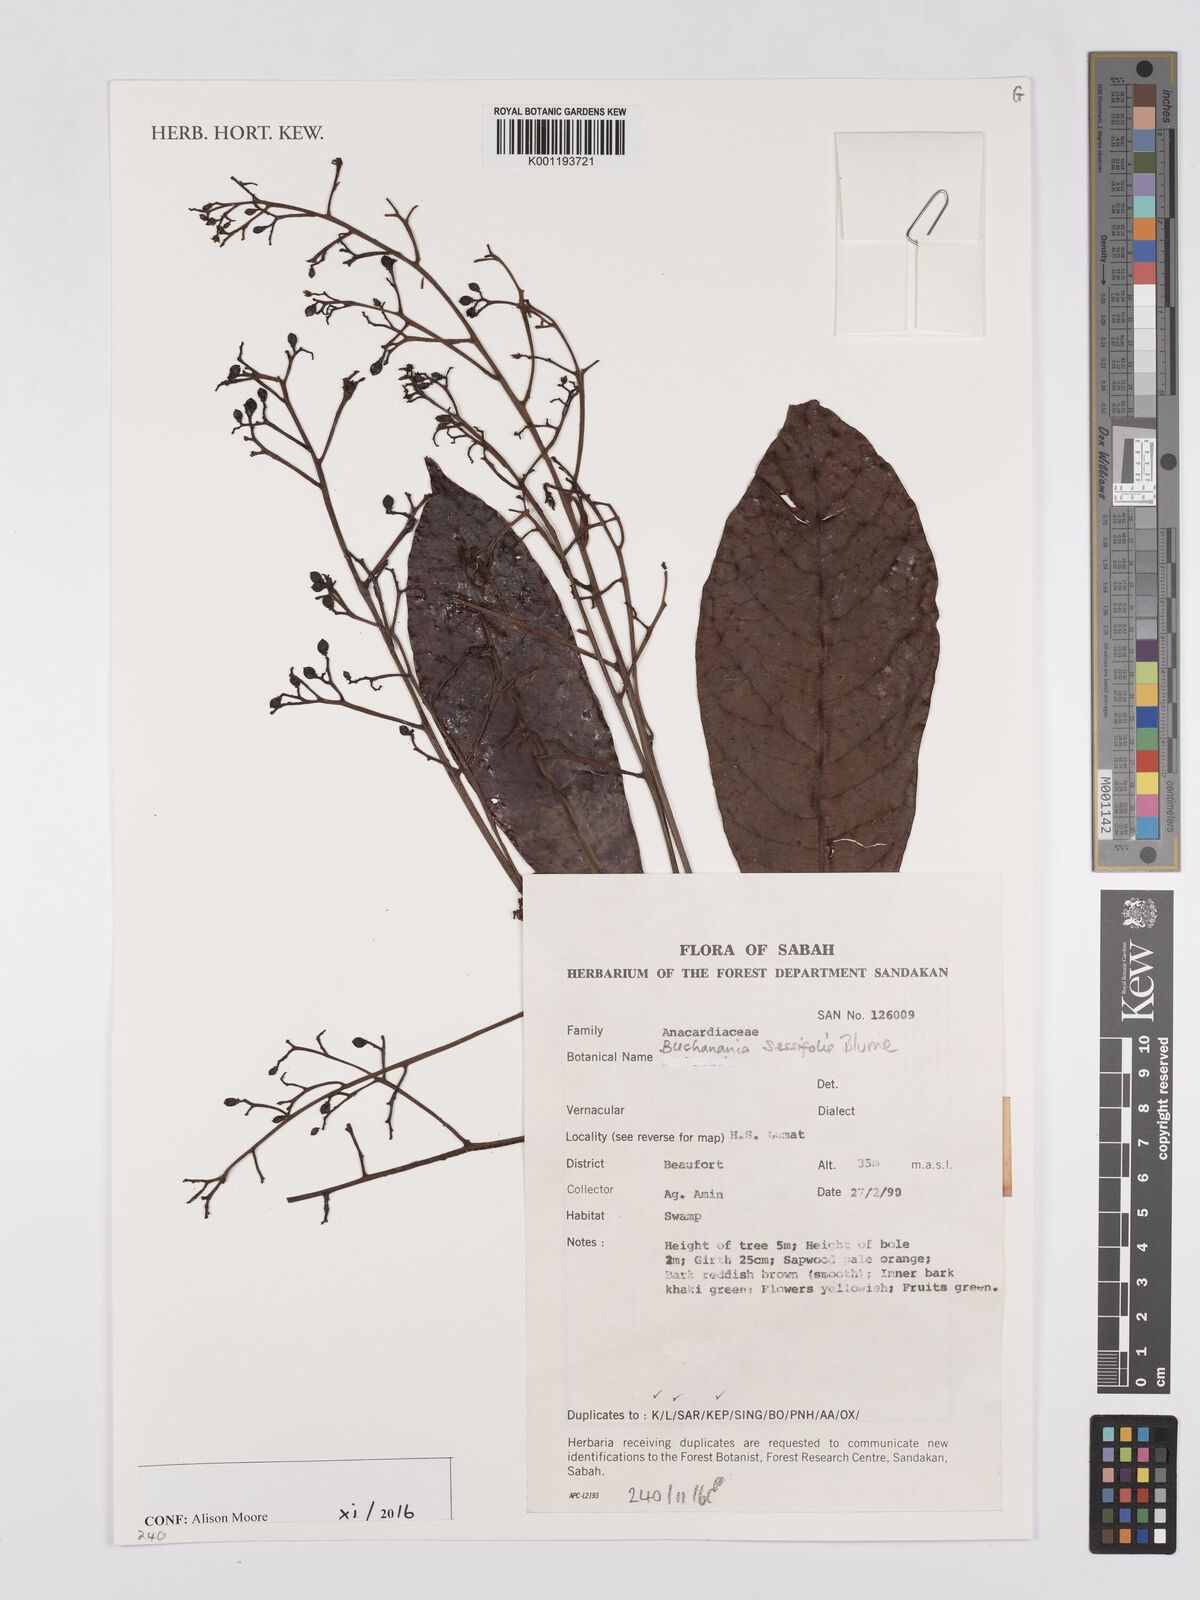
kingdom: Plantae
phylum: Tracheophyta
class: Magnoliopsida
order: Sapindales
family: Anacardiaceae
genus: Buchanania
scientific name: Buchanania sessifolia
